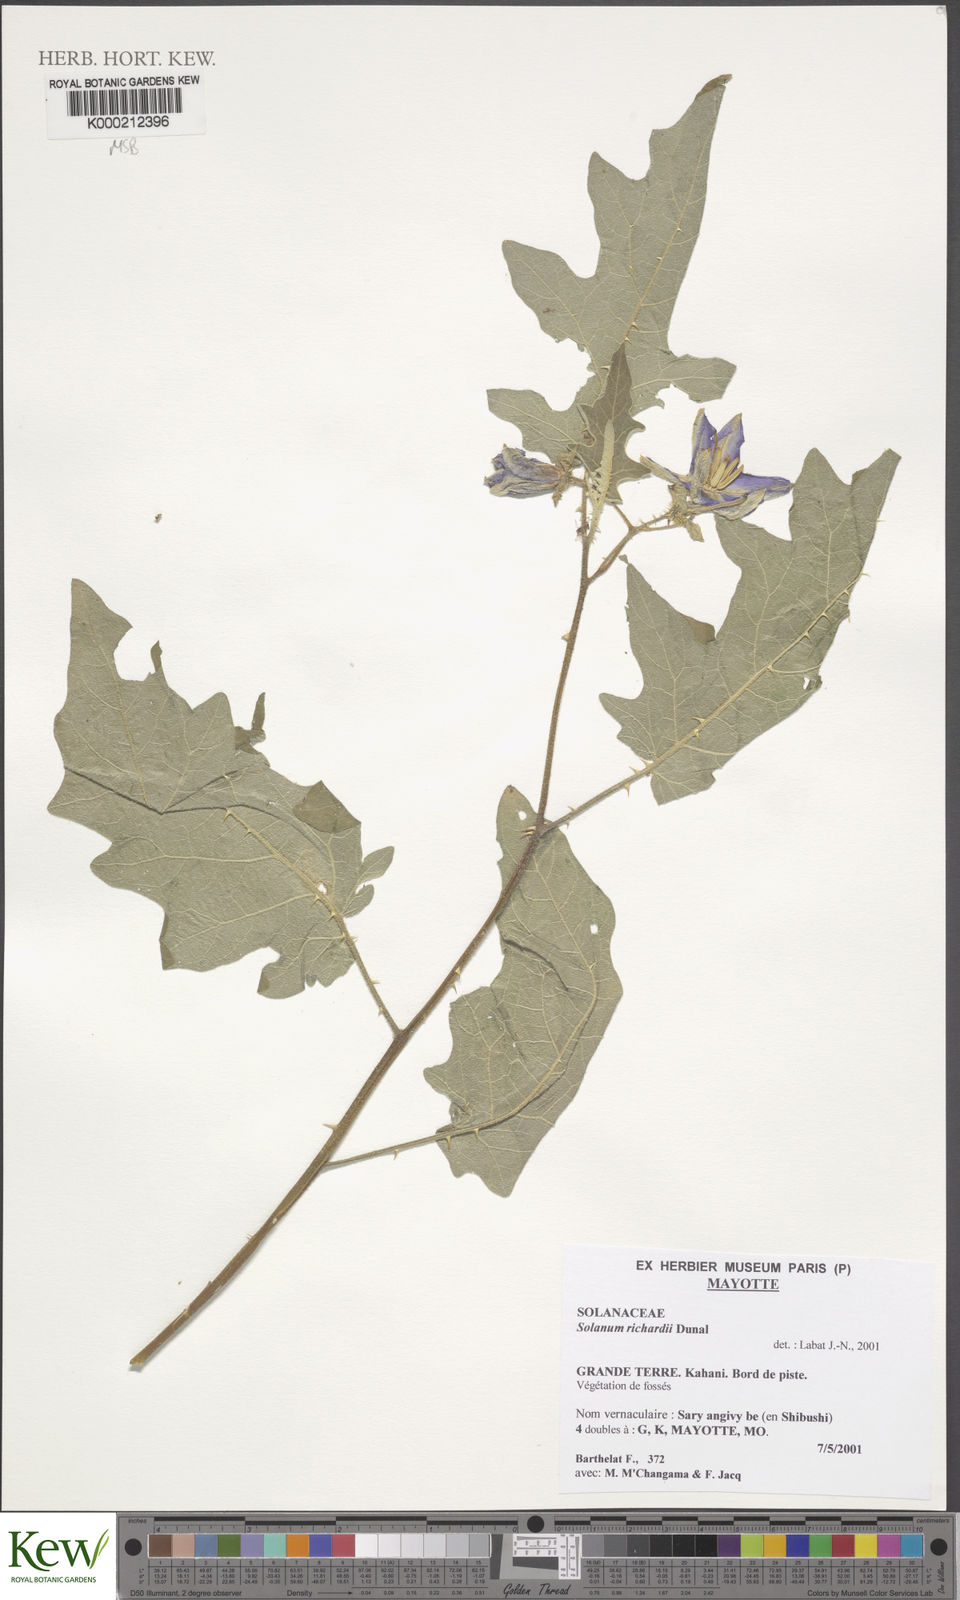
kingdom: Plantae
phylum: Tracheophyta
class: Magnoliopsida
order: Solanales
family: Solanaceae
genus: Solanum
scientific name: Solanum richardii
